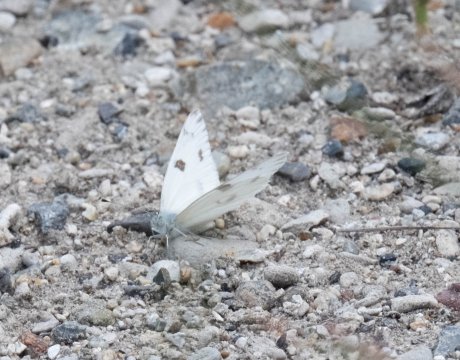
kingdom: Animalia
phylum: Arthropoda
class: Insecta
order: Lepidoptera
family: Pieridae
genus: Pontia
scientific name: Pontia protodice
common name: Checkered White
